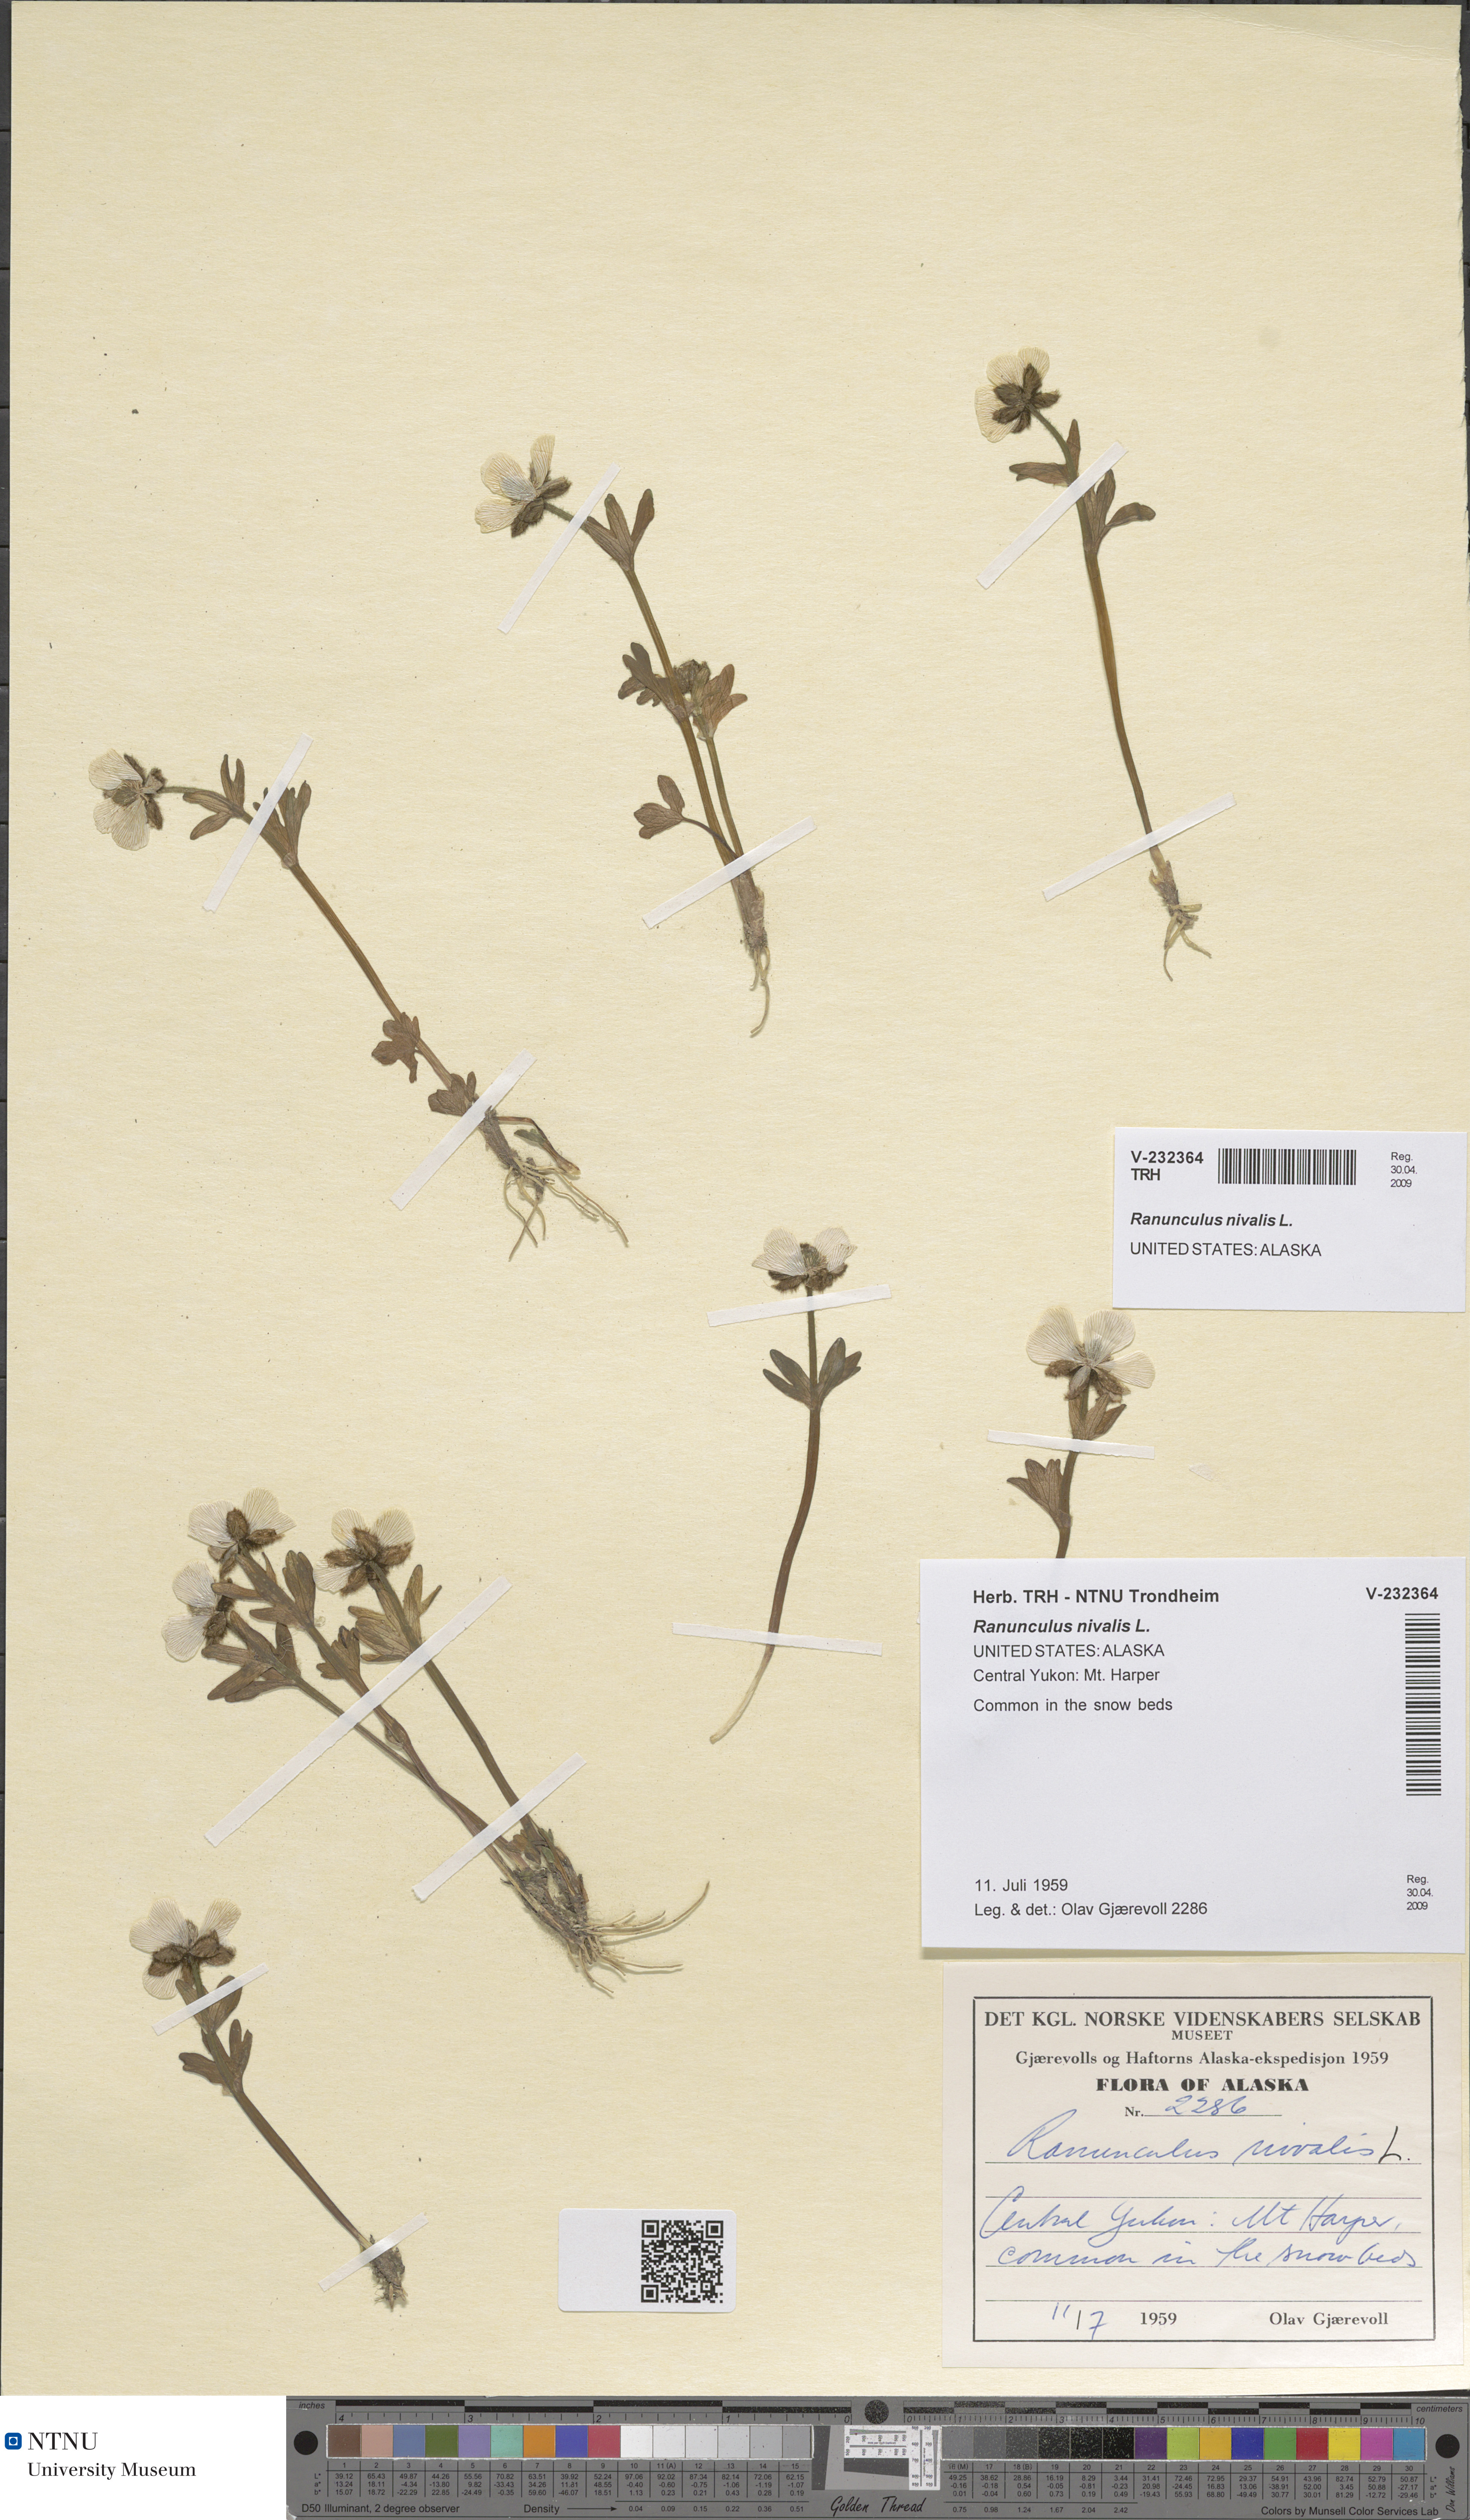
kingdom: Plantae
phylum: Tracheophyta
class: Magnoliopsida
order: Ranunculales
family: Ranunculaceae
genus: Ranunculus
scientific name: Ranunculus nivalis
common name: Snow buttercup
